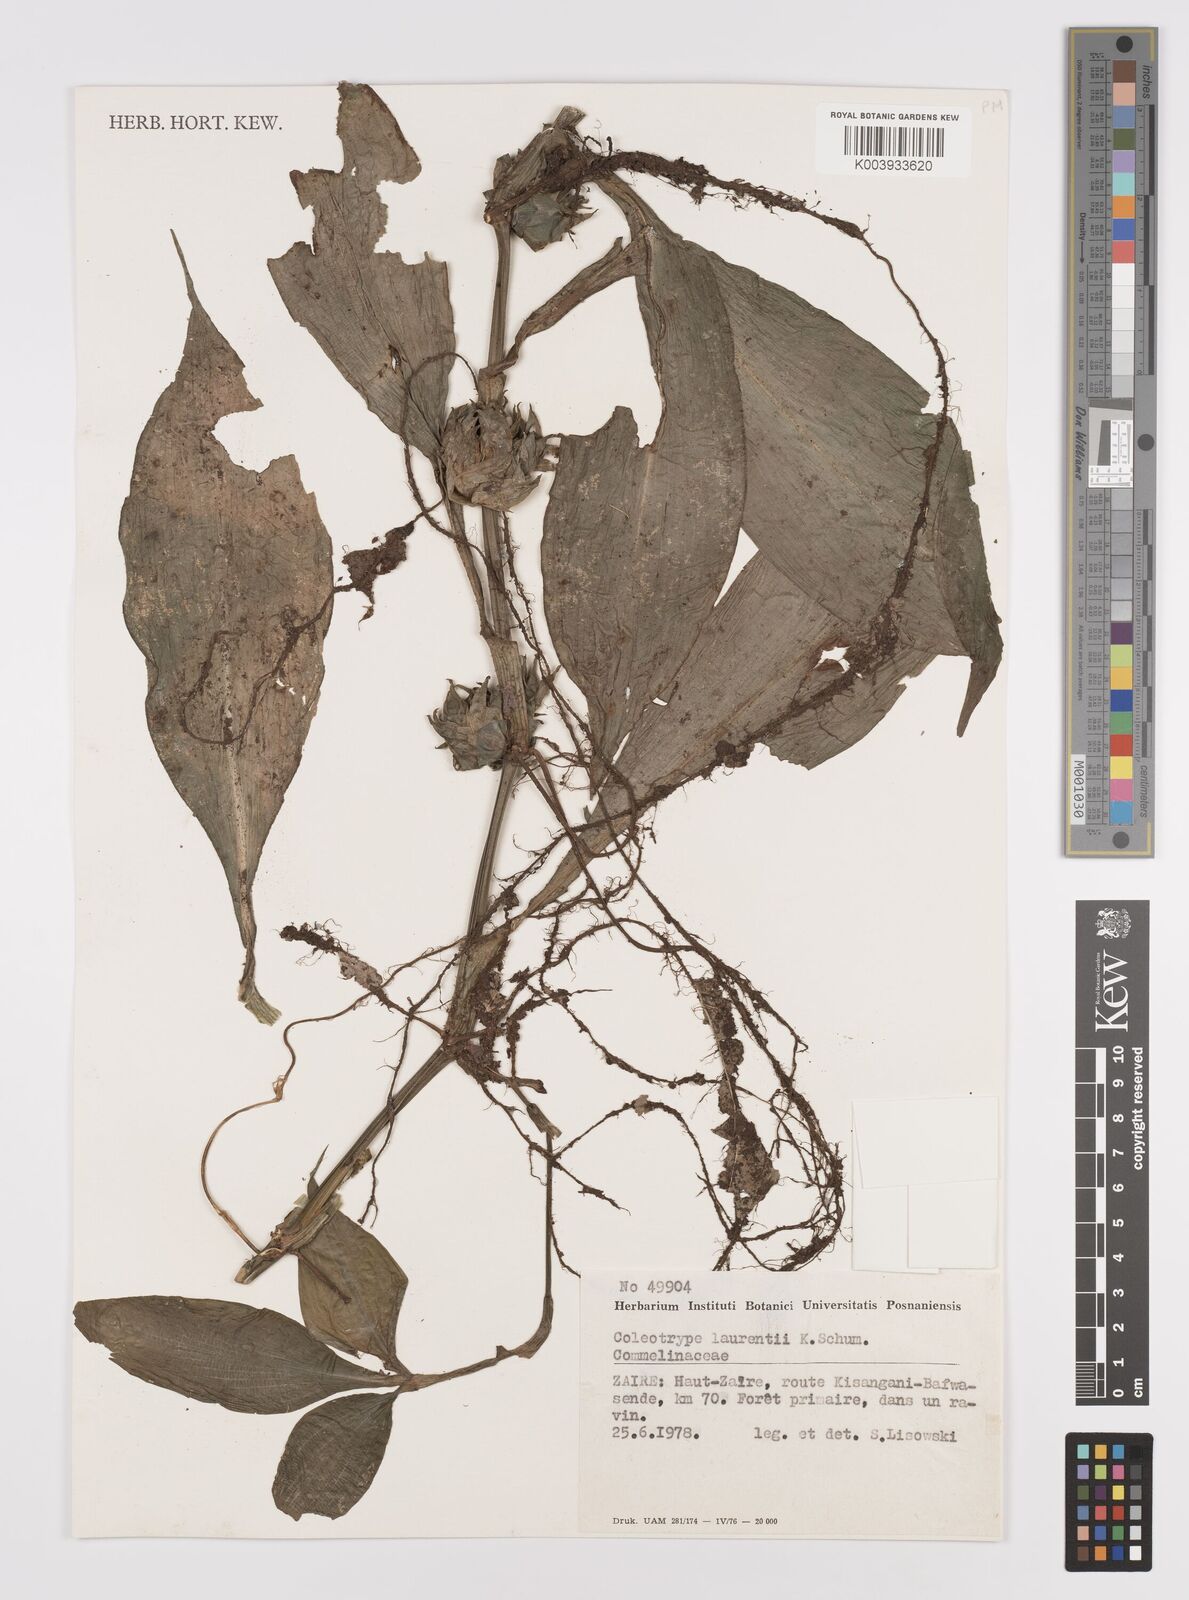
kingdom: Plantae
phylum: Tracheophyta
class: Liliopsida
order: Commelinales
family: Commelinaceae
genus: Coleotrype
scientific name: Coleotrype laurentii
